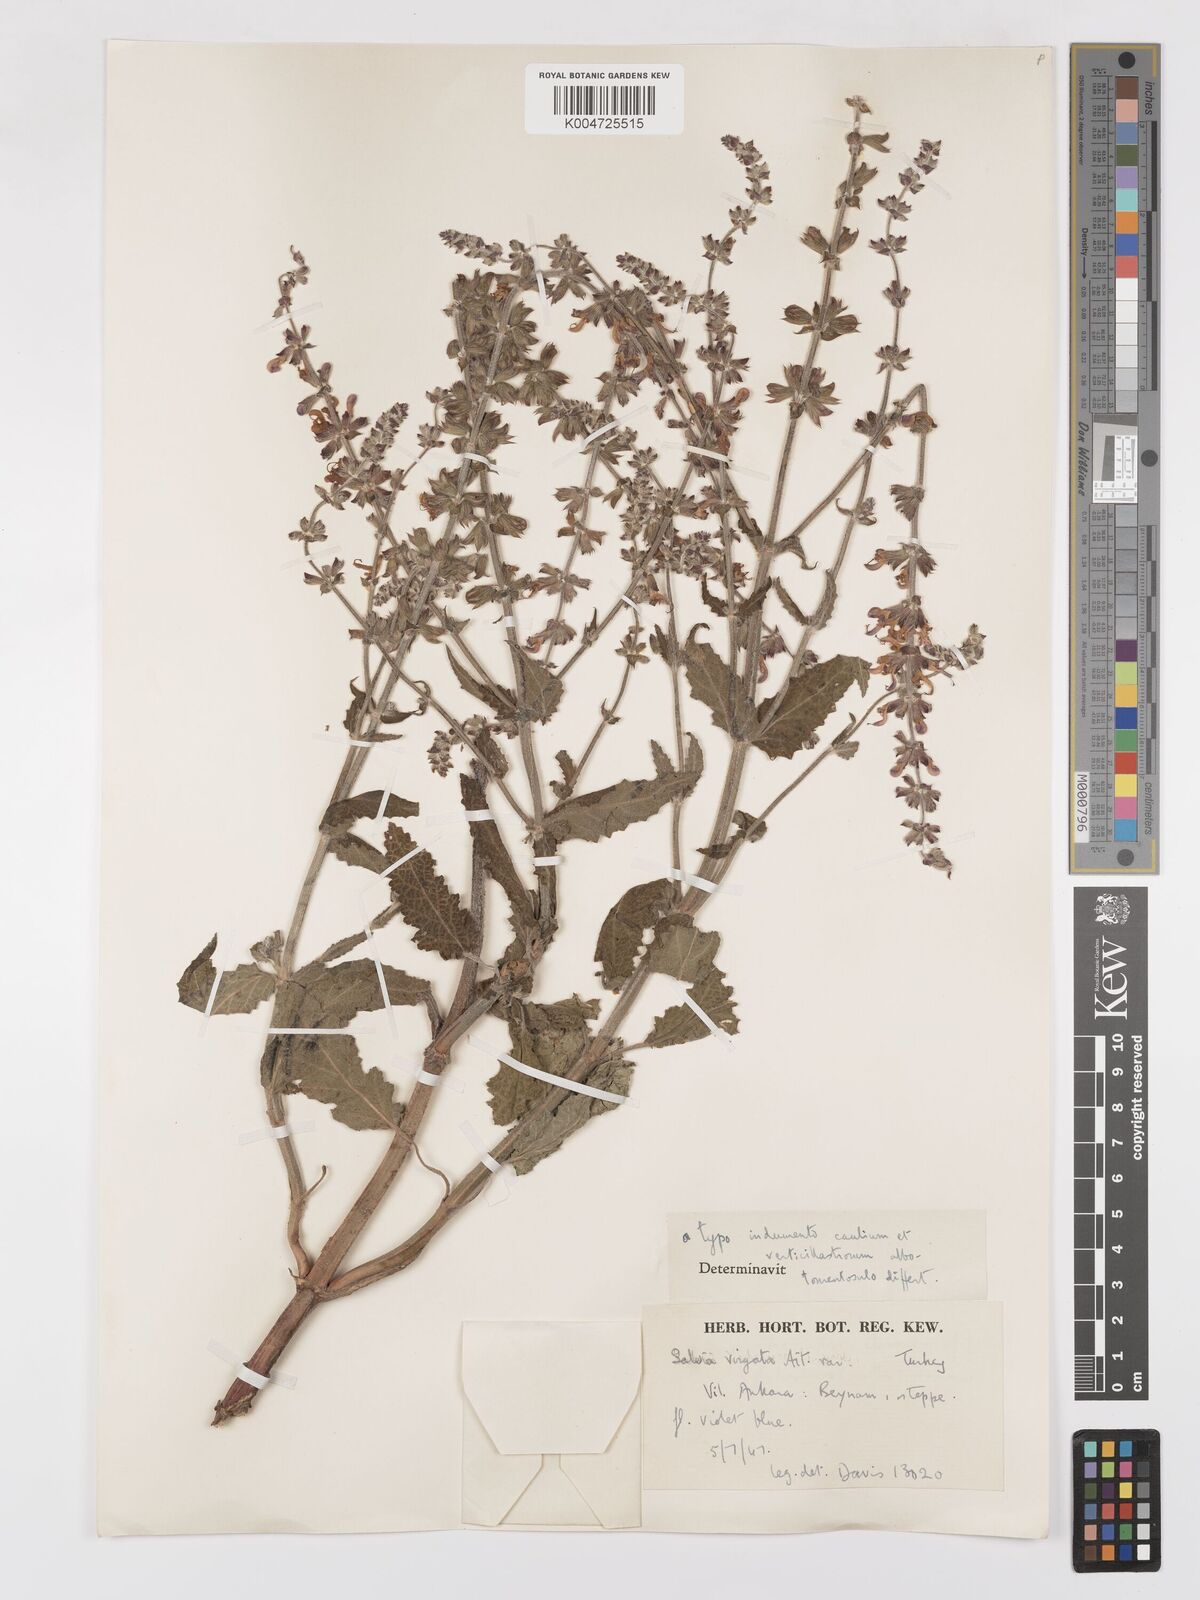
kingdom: Plantae
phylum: Tracheophyta
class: Magnoliopsida
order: Lamiales
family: Lamiaceae
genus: Salvia
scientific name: Salvia
